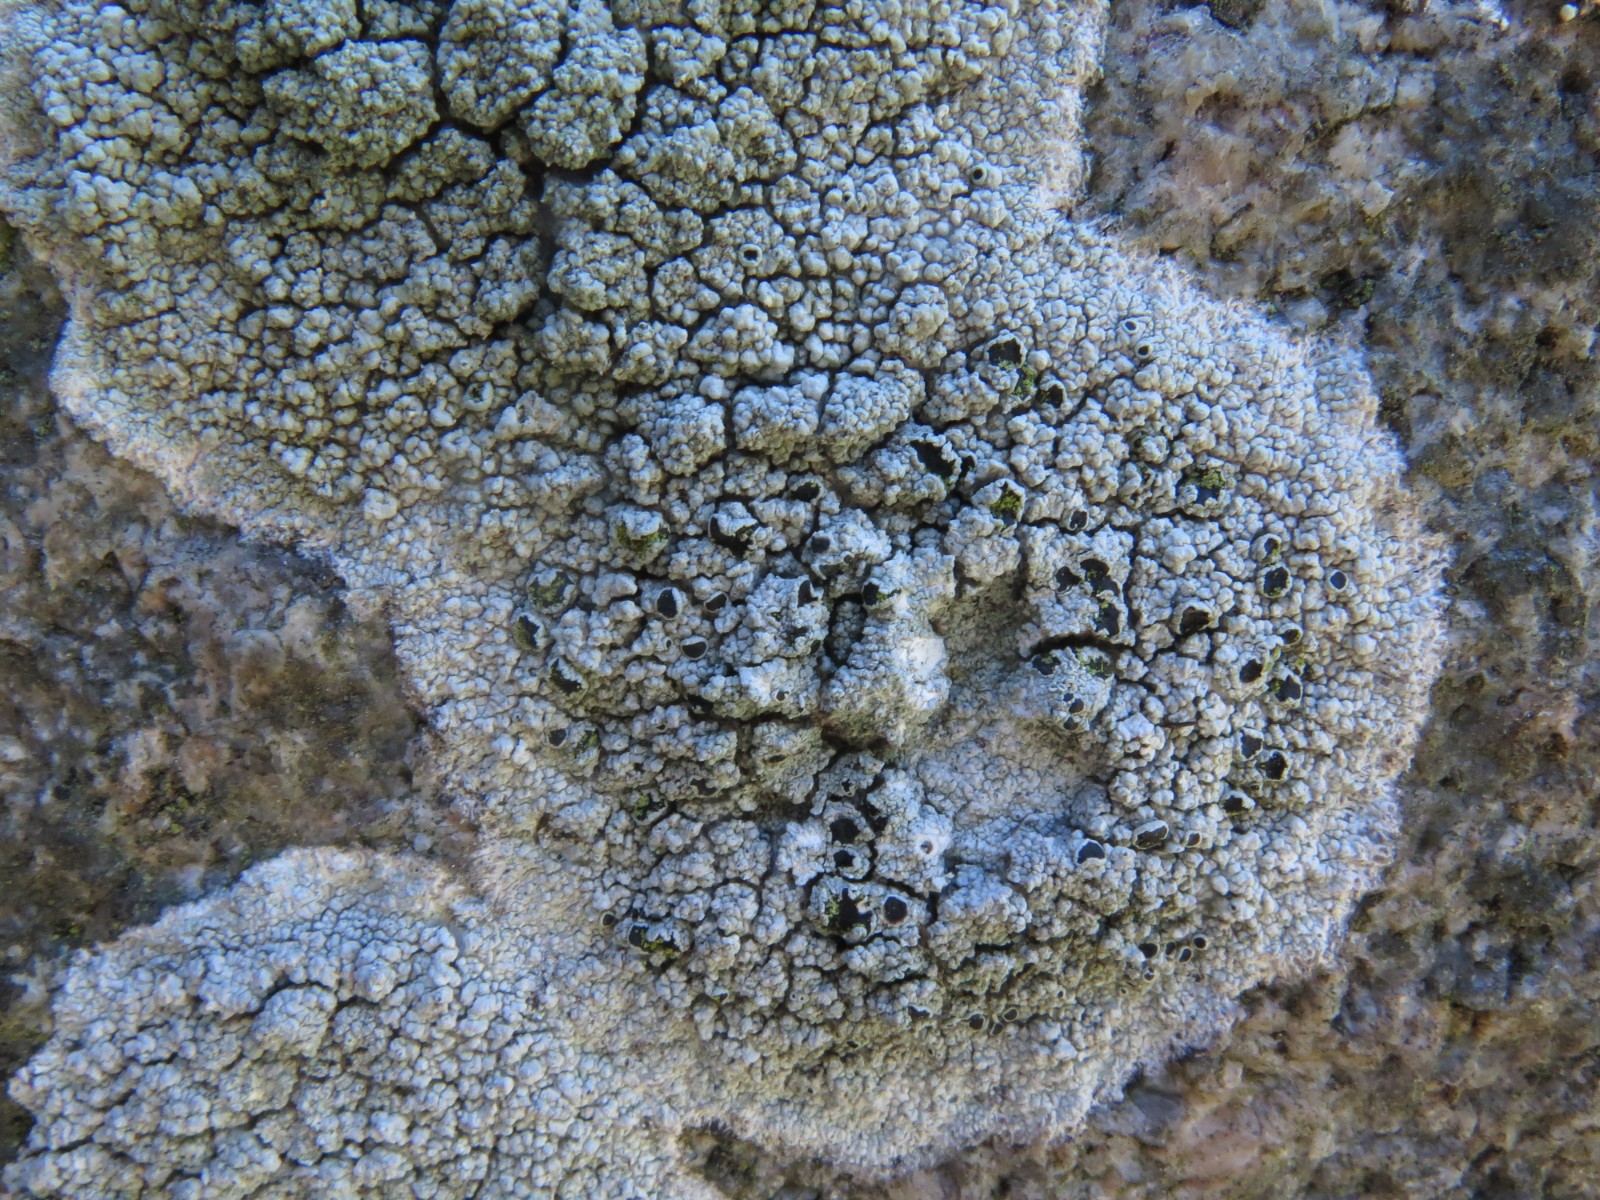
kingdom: Fungi
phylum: Ascomycota
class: Lecanoromycetes
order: Lecanorales
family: Tephromelataceae
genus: Tephromela
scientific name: Tephromela atra
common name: sortfrugtet kantskivelav
